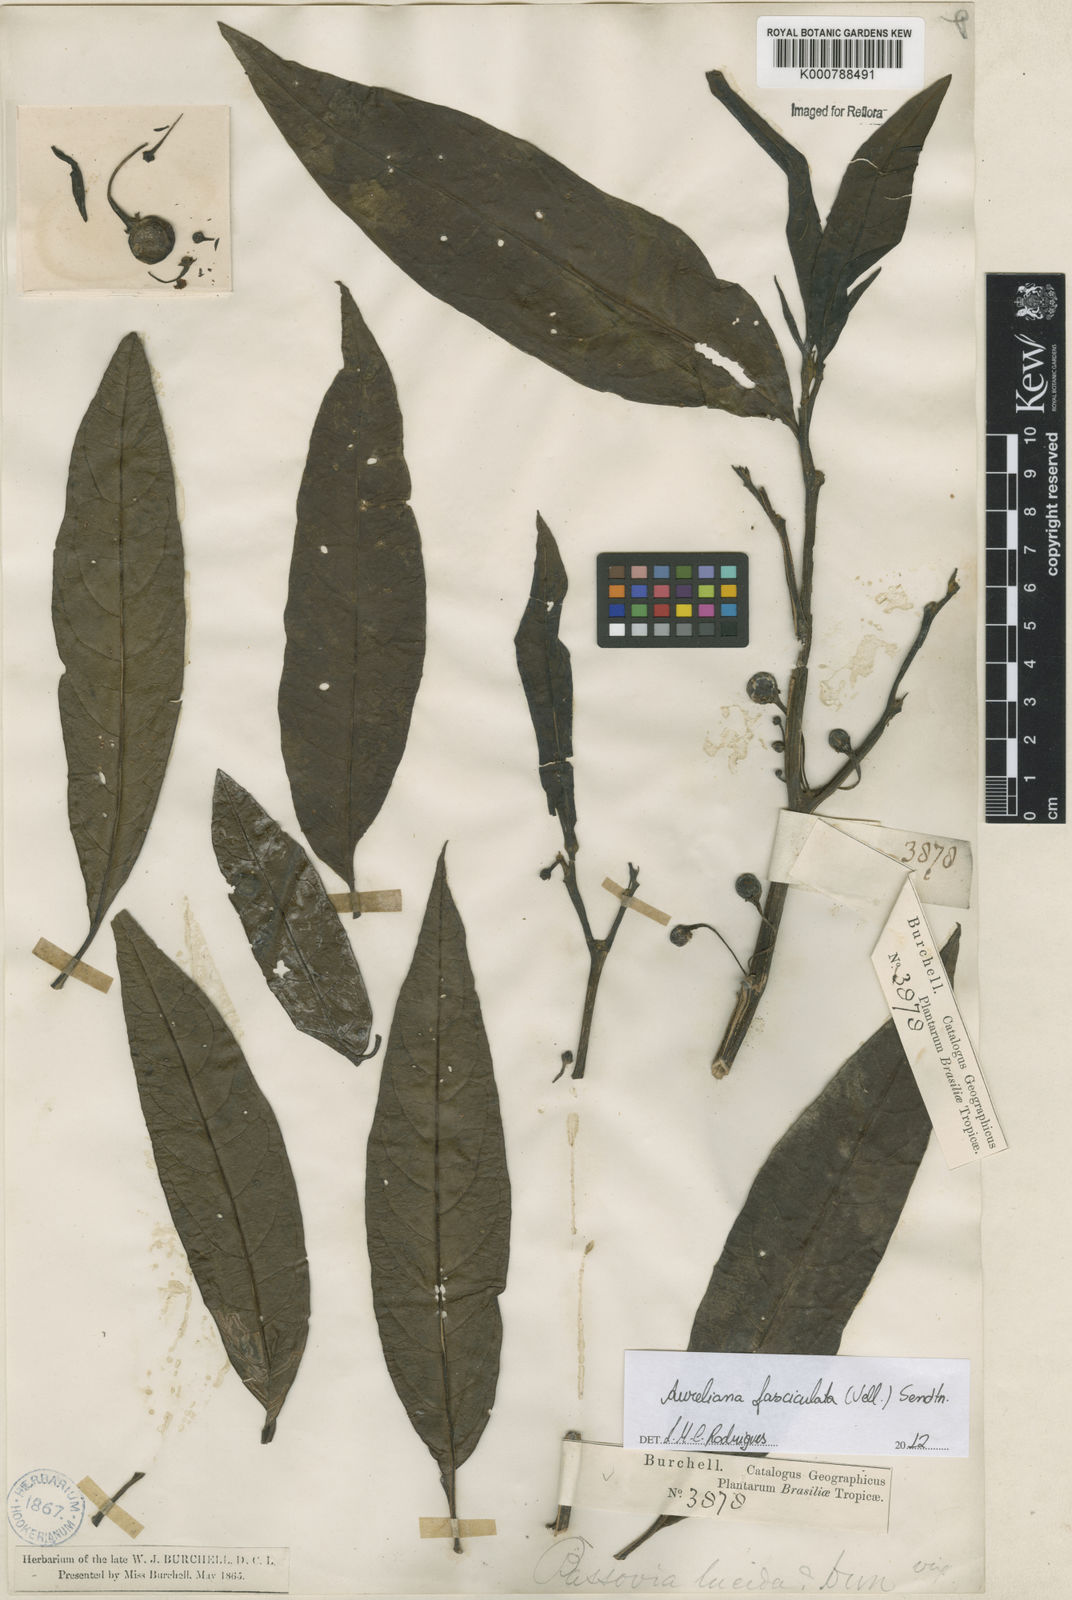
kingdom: Plantae
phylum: Tracheophyta
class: Magnoliopsida
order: Solanales
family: Solanaceae
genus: Athenaea
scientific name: Athenaea fasciculata
